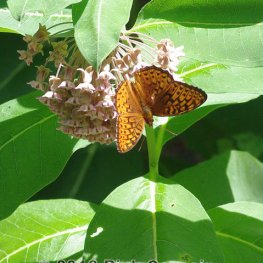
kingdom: Animalia
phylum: Arthropoda
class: Insecta
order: Lepidoptera
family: Nymphalidae
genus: Speyeria
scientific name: Speyeria atlantis
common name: Atlantis Fritillary
